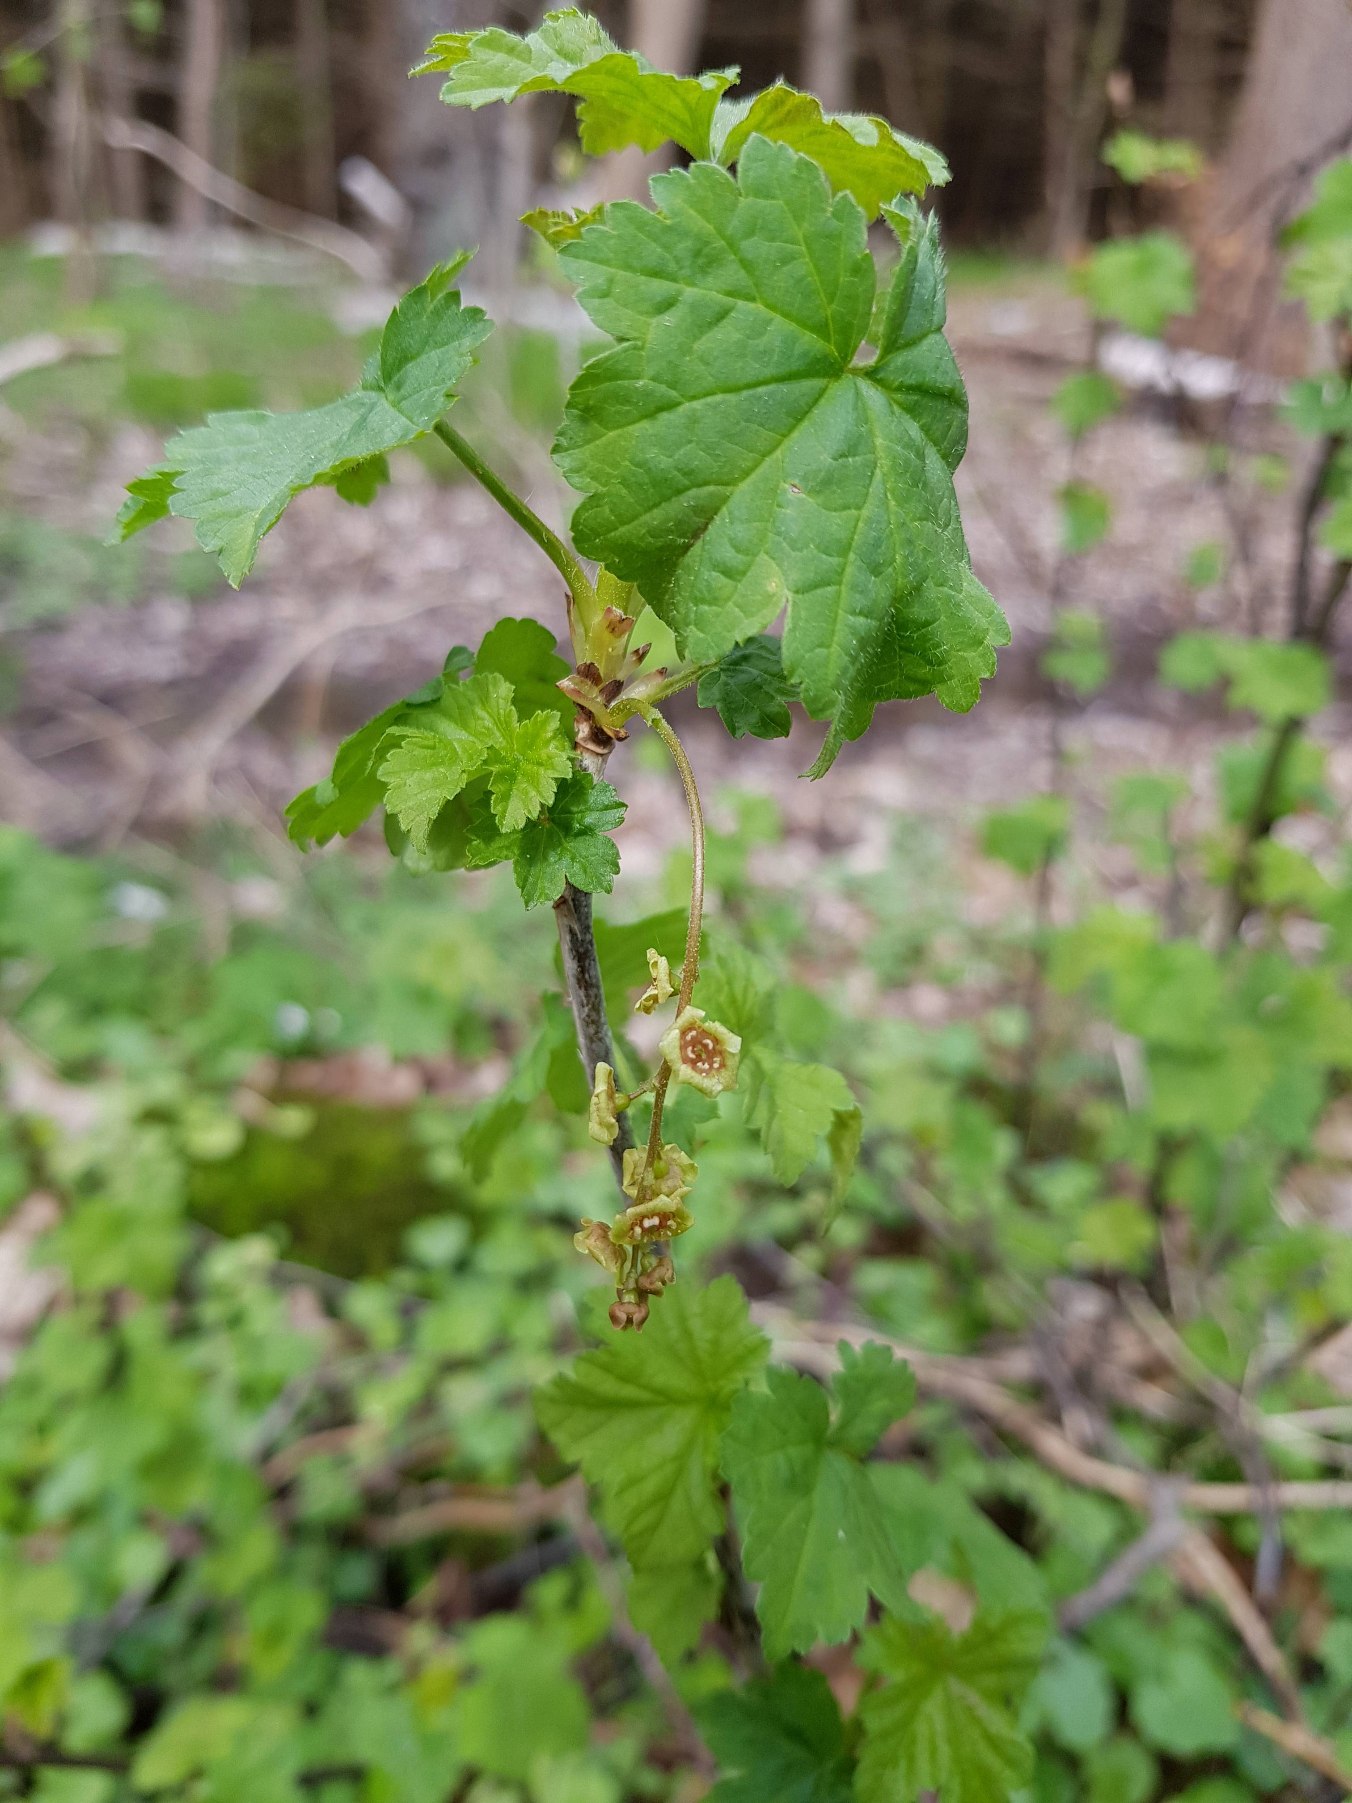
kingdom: Plantae
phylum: Tracheophyta
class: Magnoliopsida
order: Saxifragales
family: Grossulariaceae
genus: Ribes
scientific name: Ribes rubrum
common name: Have-ribs
